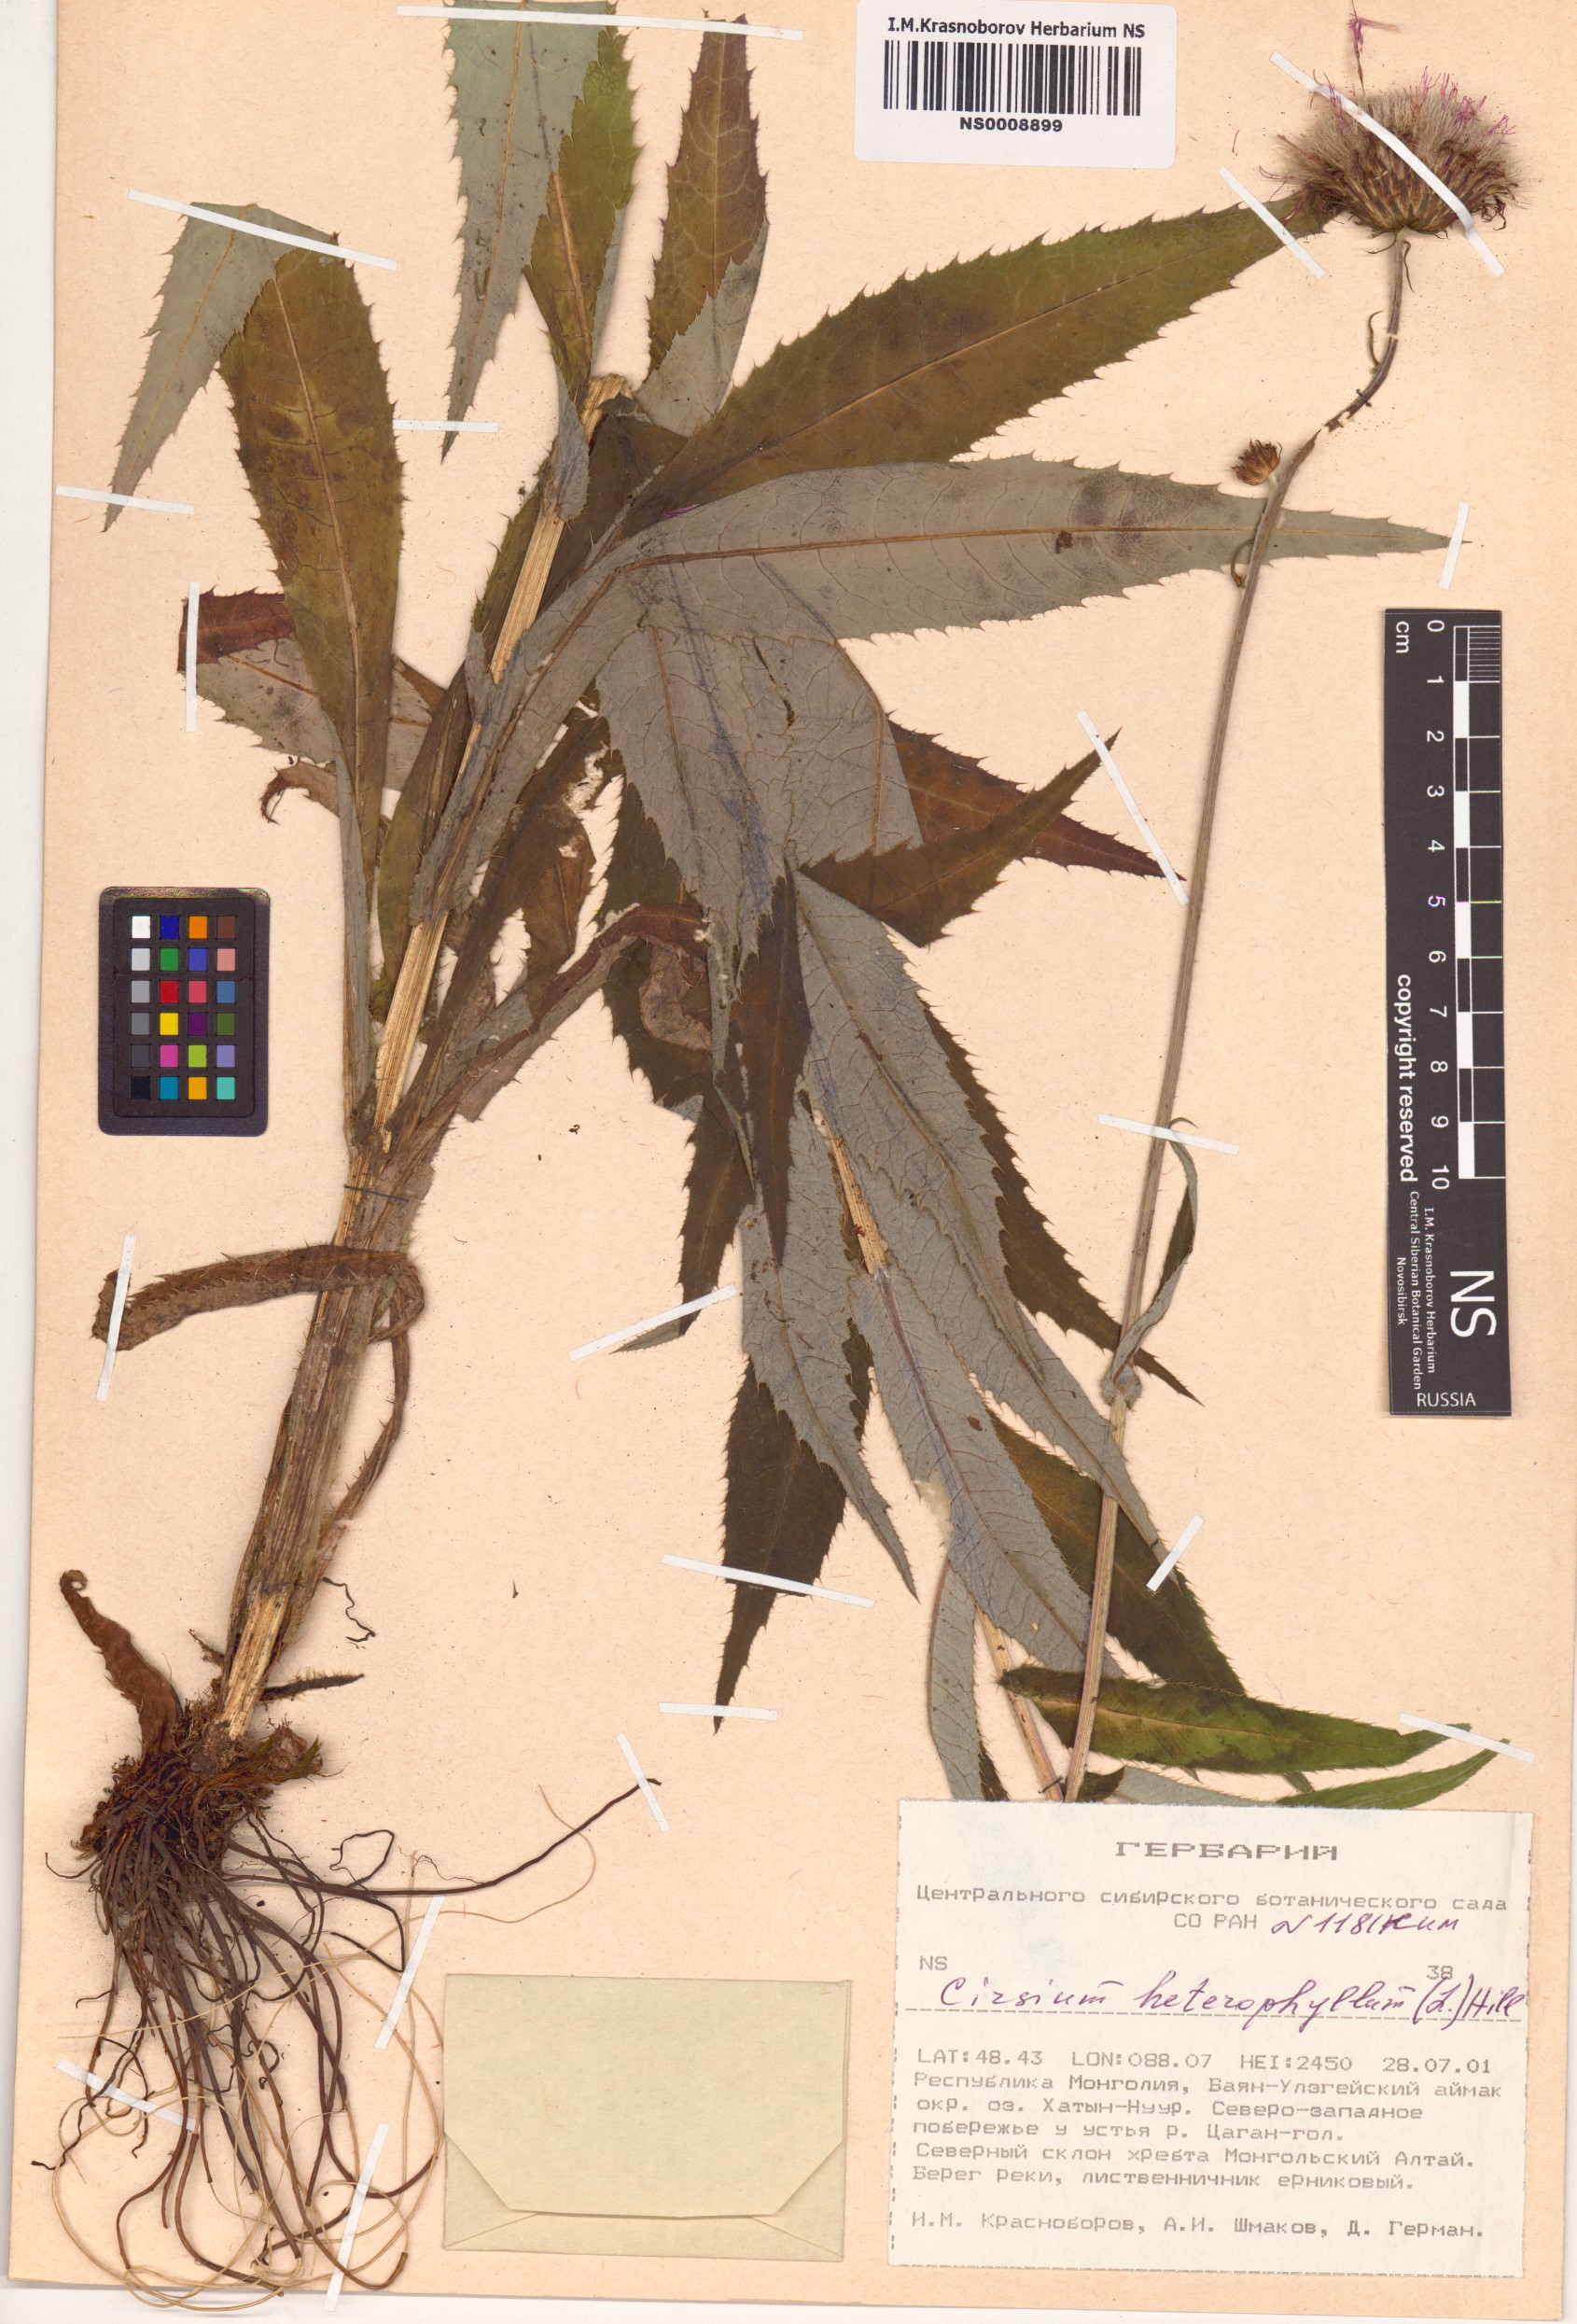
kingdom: Plantae
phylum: Tracheophyta
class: Magnoliopsida
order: Asterales
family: Asteraceae
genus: Cirsium
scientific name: Cirsium heterophyllum
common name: Melancholy thistle
